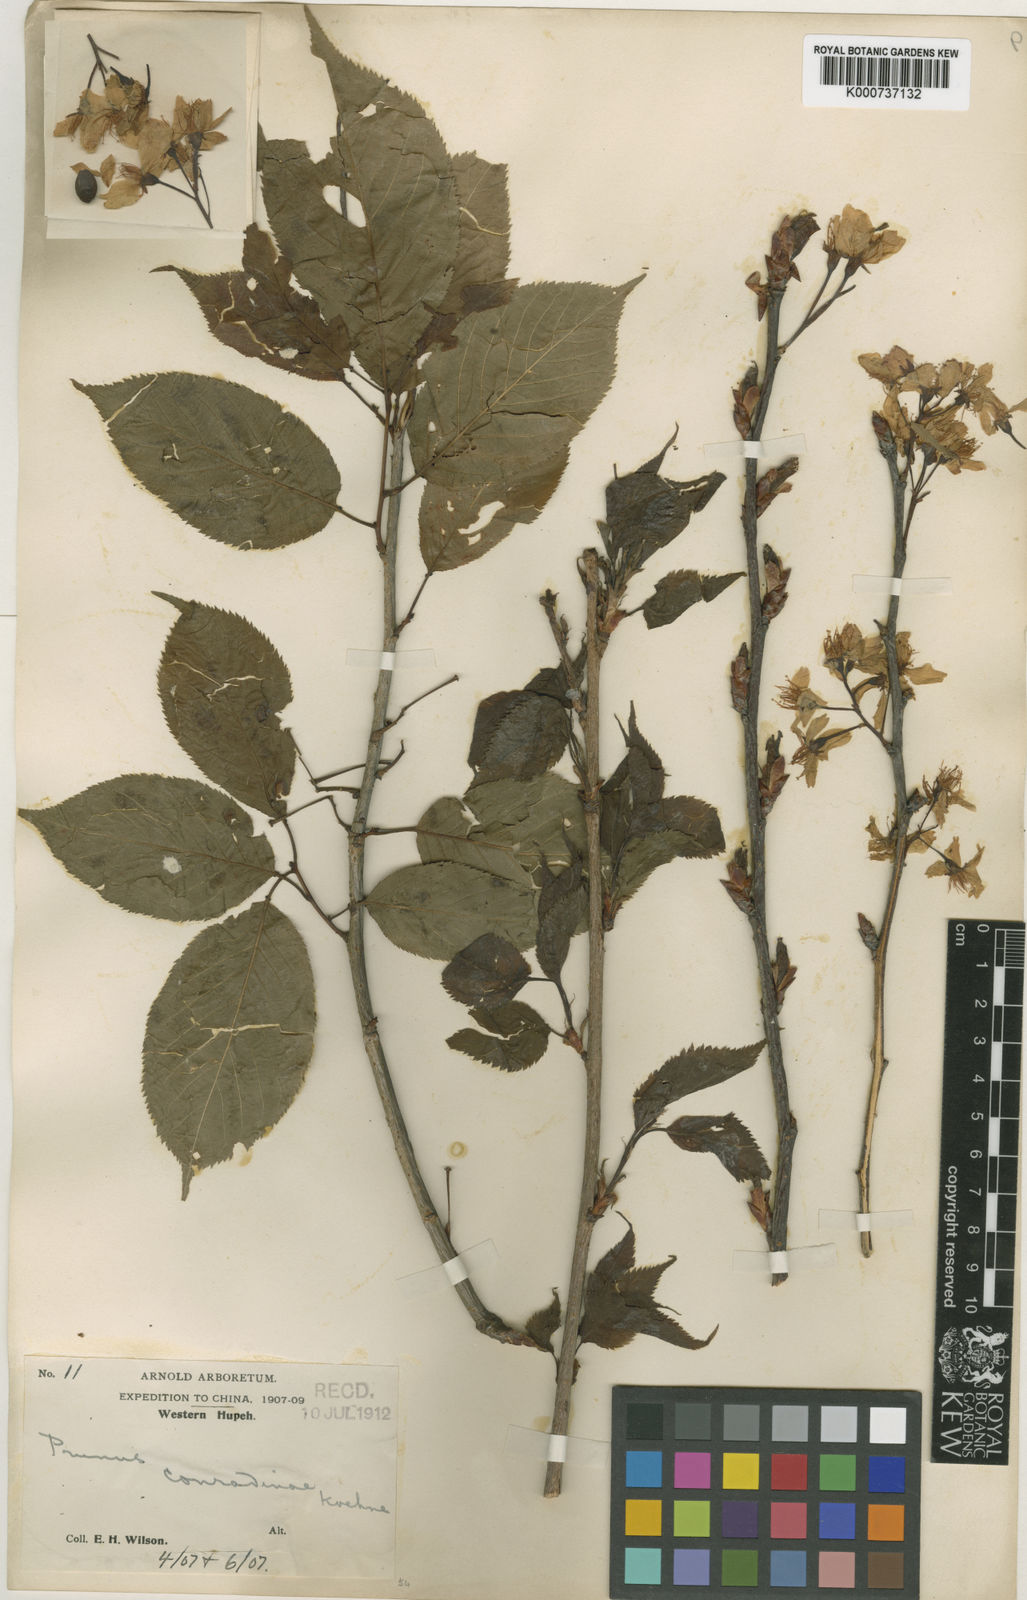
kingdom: Plantae
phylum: Tracheophyta
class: Magnoliopsida
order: Rosales
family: Rosaceae
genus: Prunus
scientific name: Prunus conradinae
